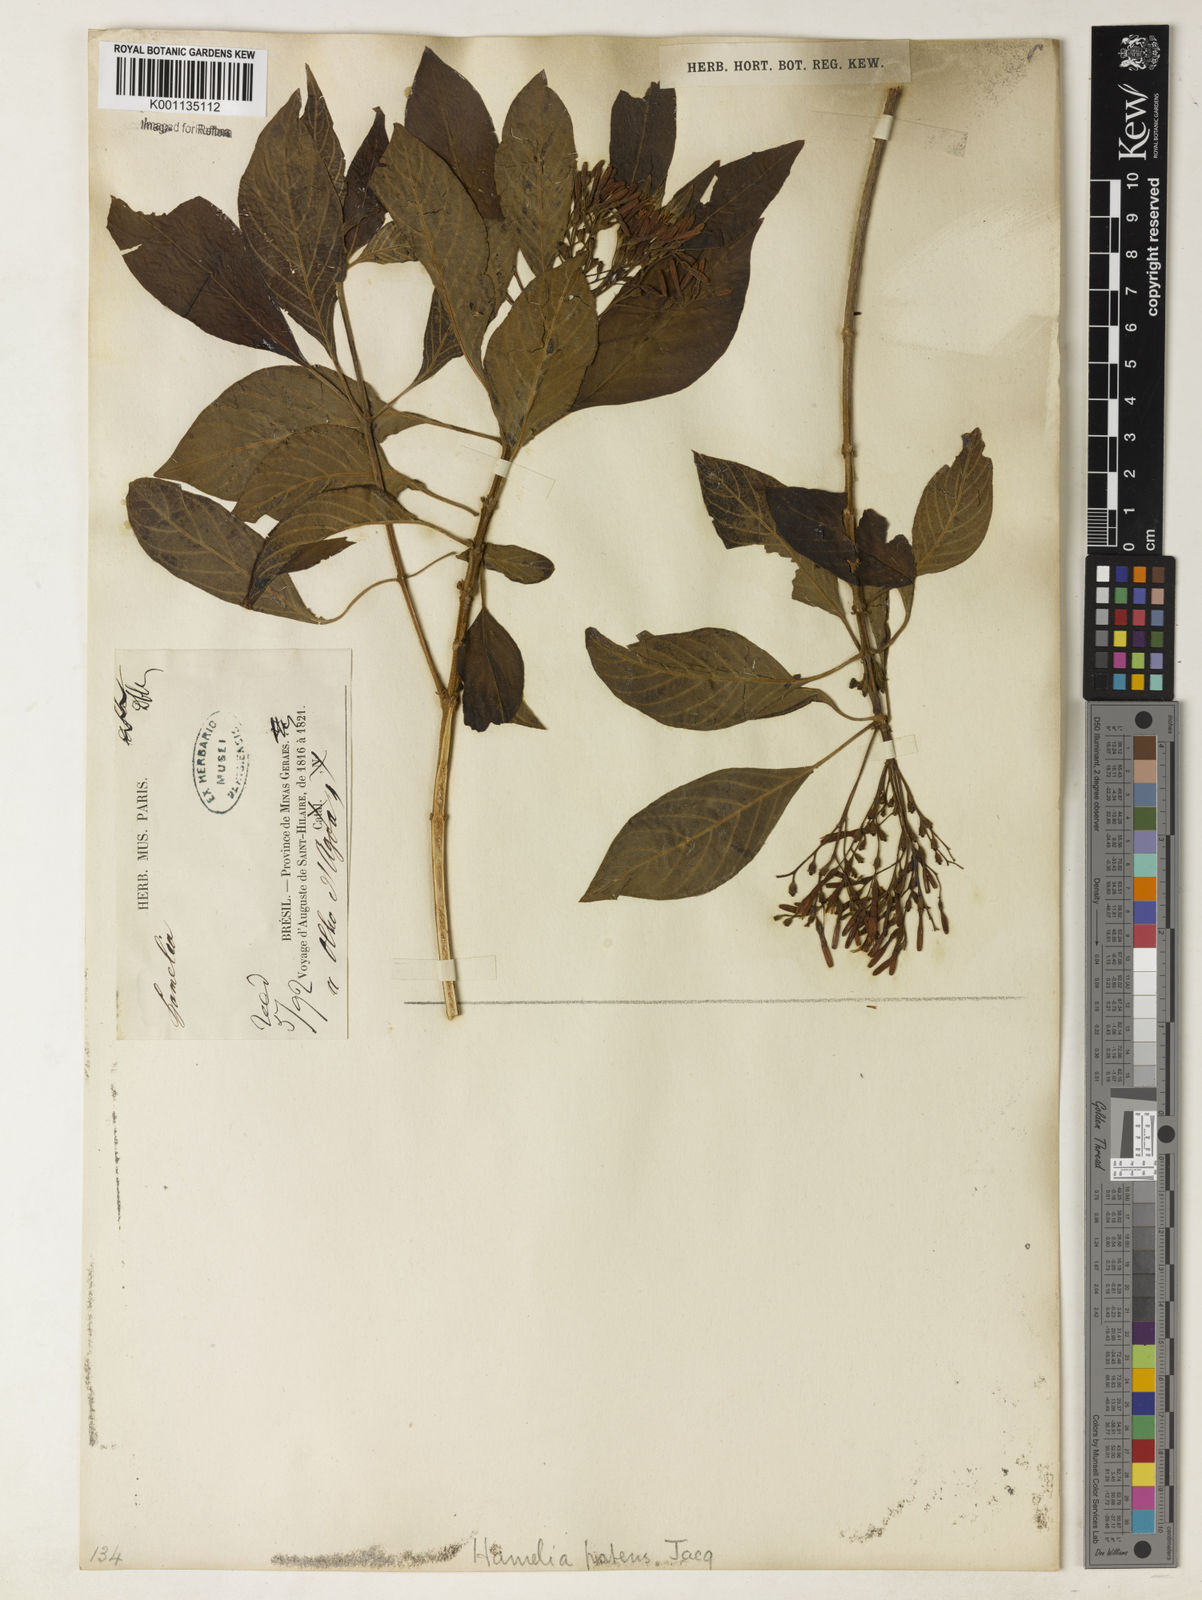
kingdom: Plantae
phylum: Tracheophyta
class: Magnoliopsida
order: Gentianales
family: Rubiaceae
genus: Hamelia
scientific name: Hamelia patens
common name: Redhead
